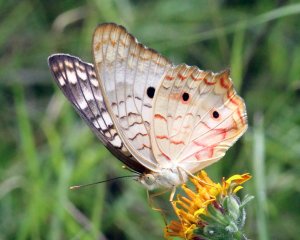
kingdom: Animalia
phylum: Arthropoda
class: Insecta
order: Lepidoptera
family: Nymphalidae
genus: Anartia
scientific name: Anartia jatrophae
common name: White Peacock
